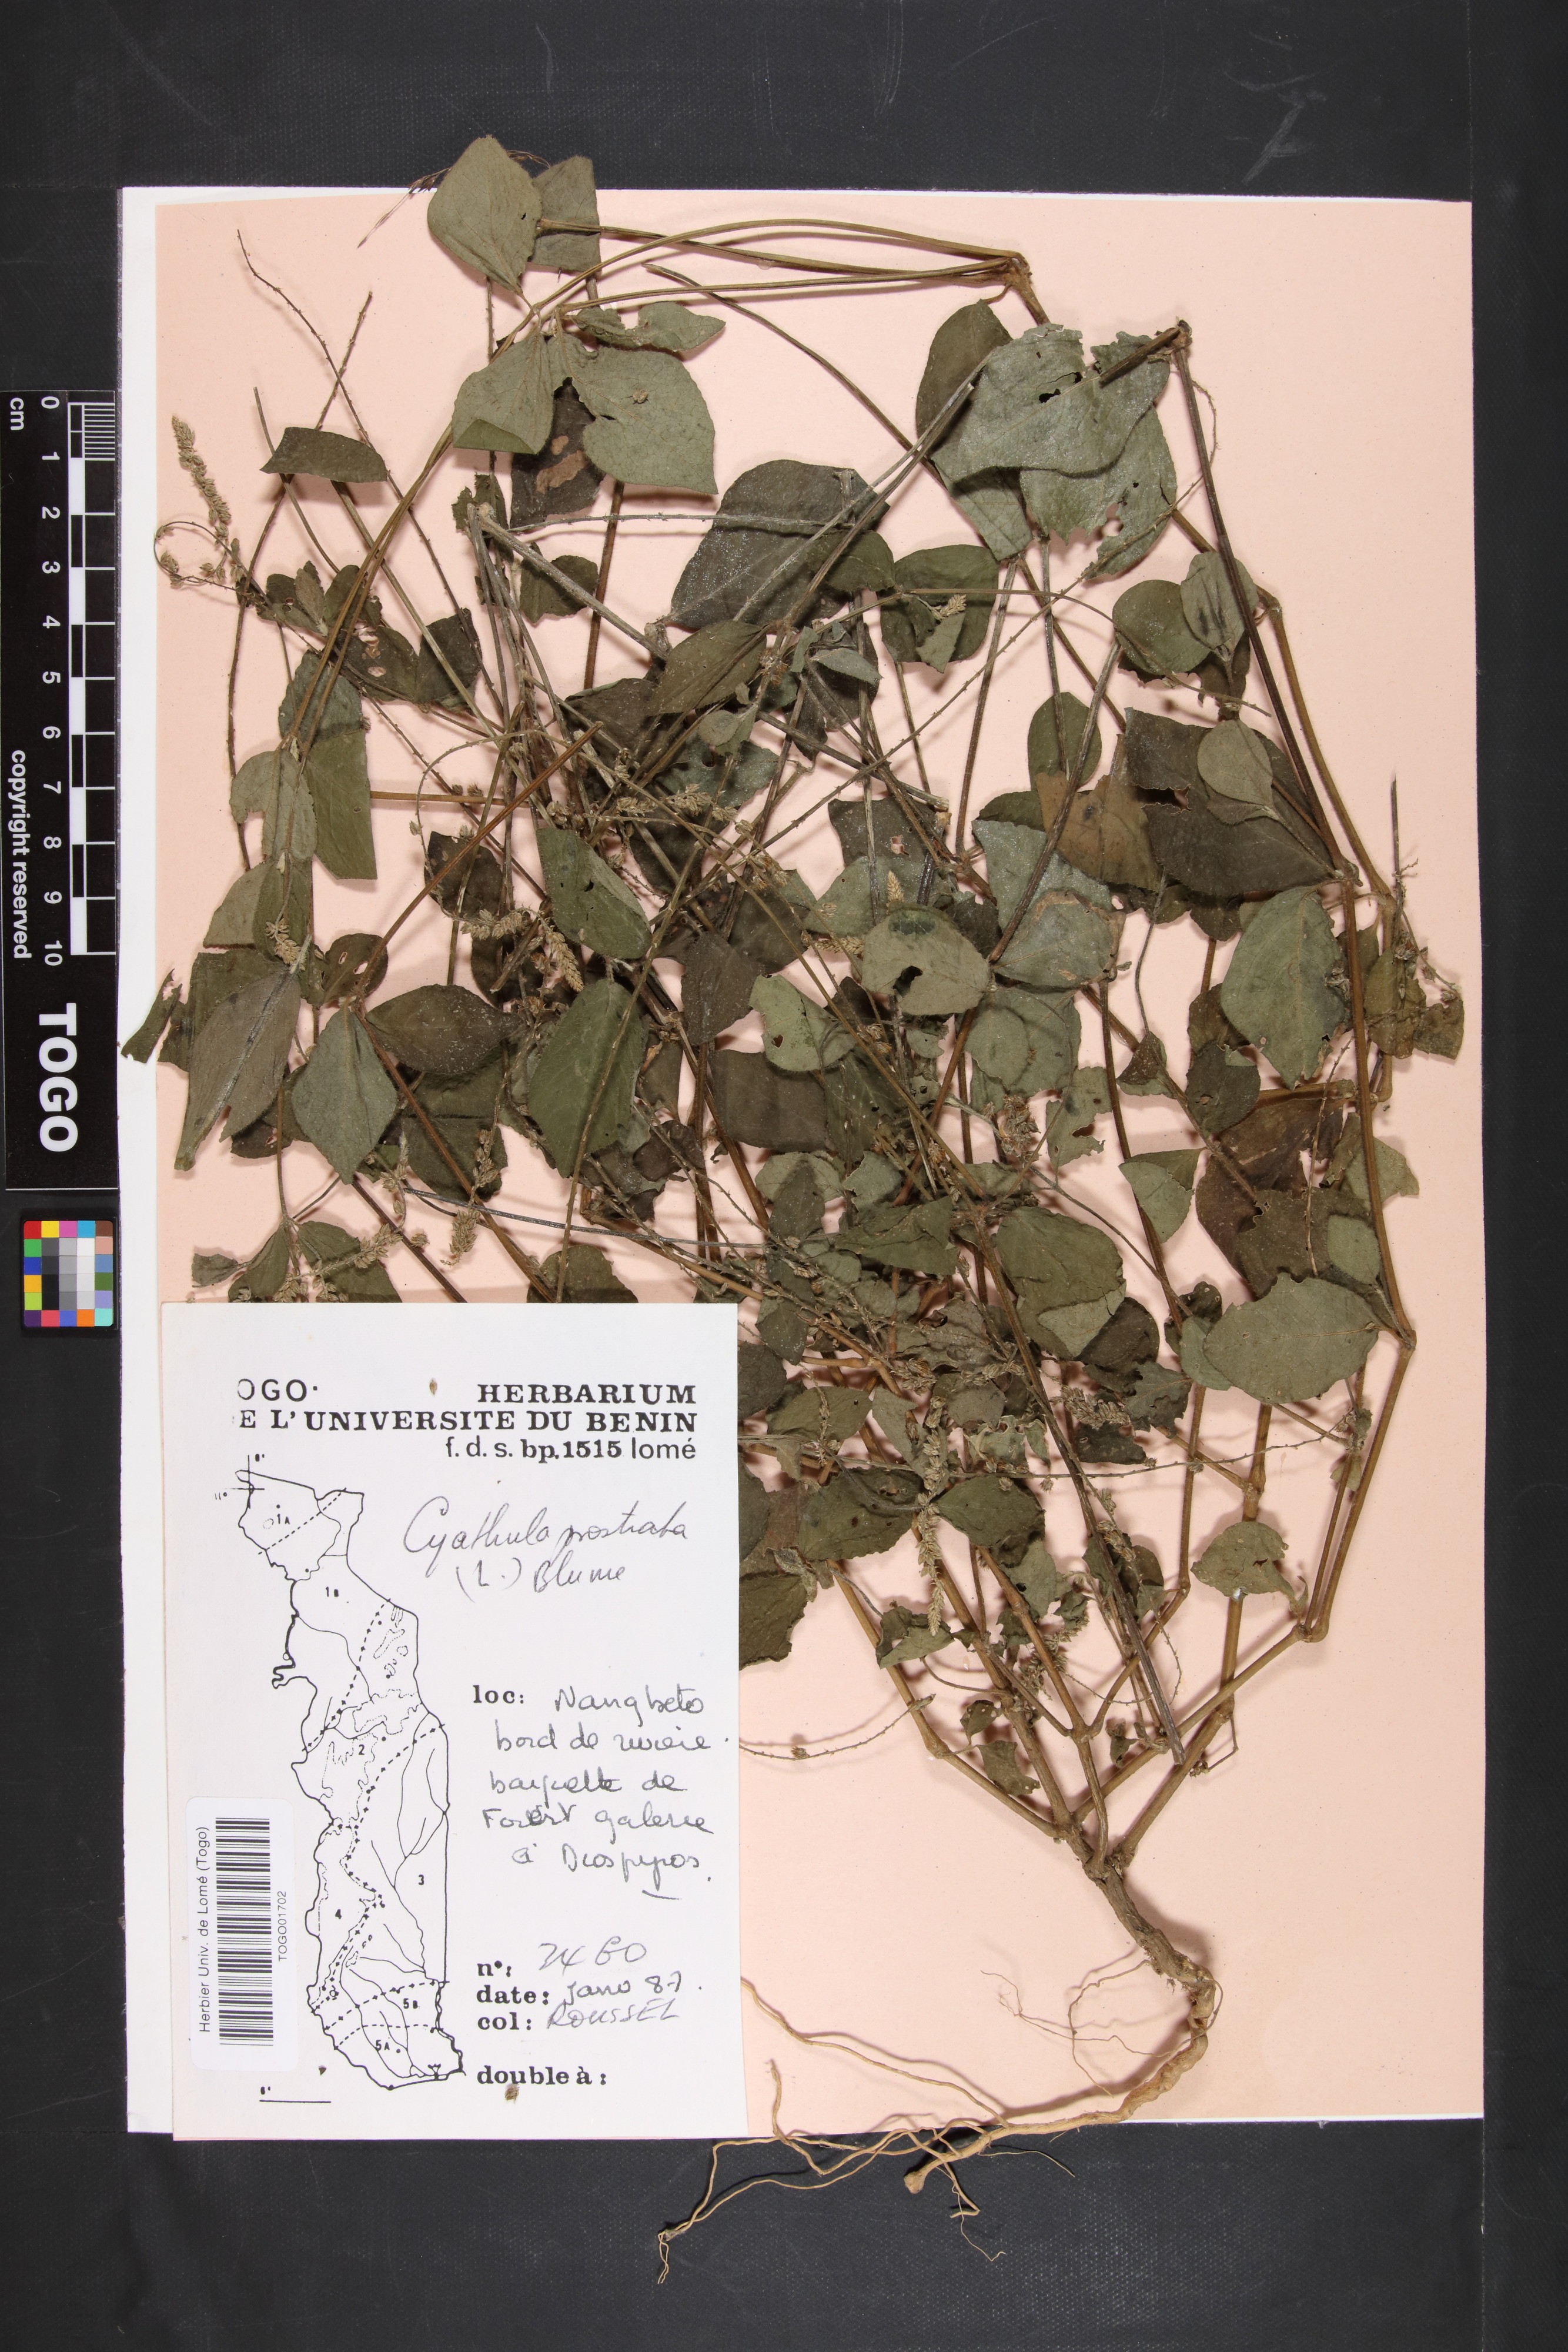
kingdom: Plantae
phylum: Tracheophyta
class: Magnoliopsida
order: Caryophyllales
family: Amaranthaceae
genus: Cyathula
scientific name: Cyathula prostrata
